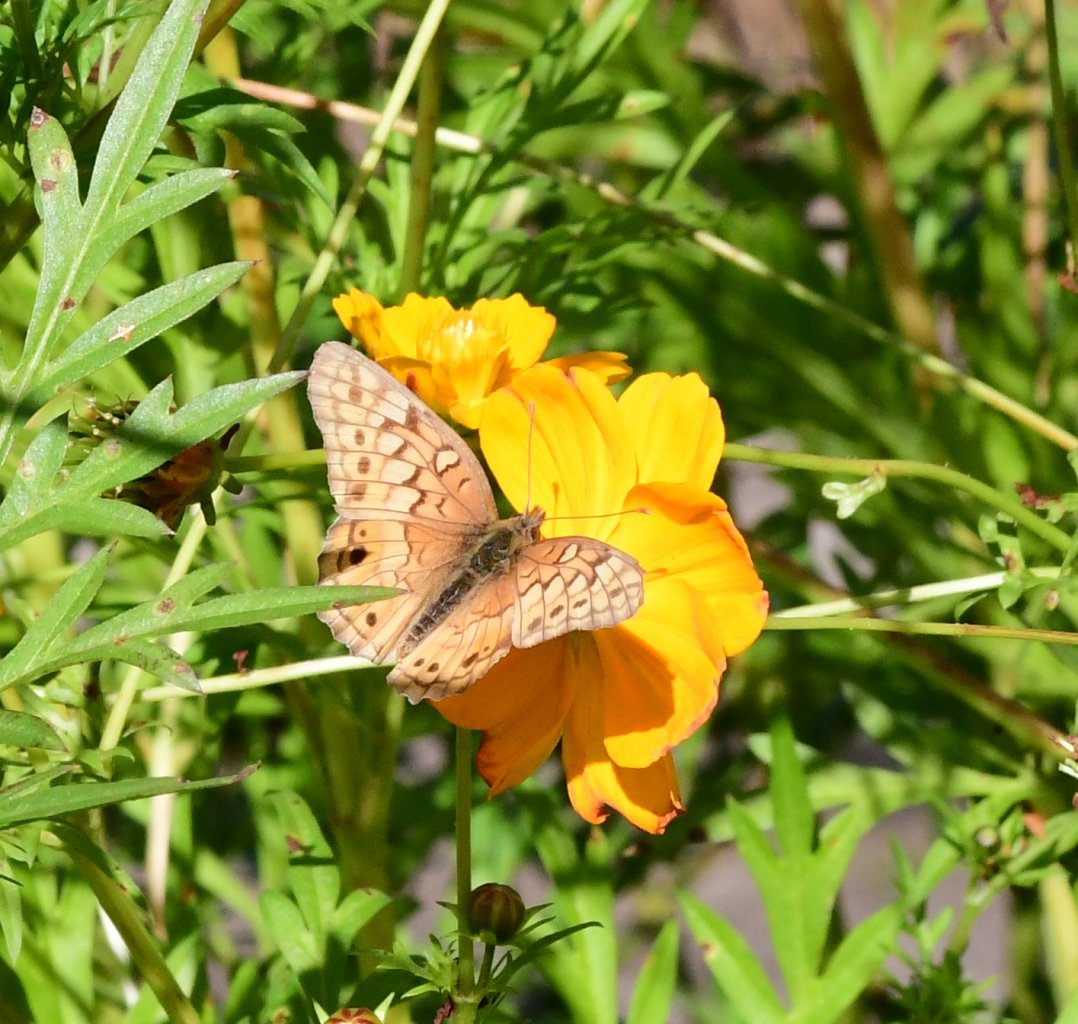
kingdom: Animalia
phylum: Arthropoda
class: Insecta
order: Lepidoptera
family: Nymphalidae
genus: Euptoieta
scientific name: Euptoieta claudia
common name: Variegated Fritillary
